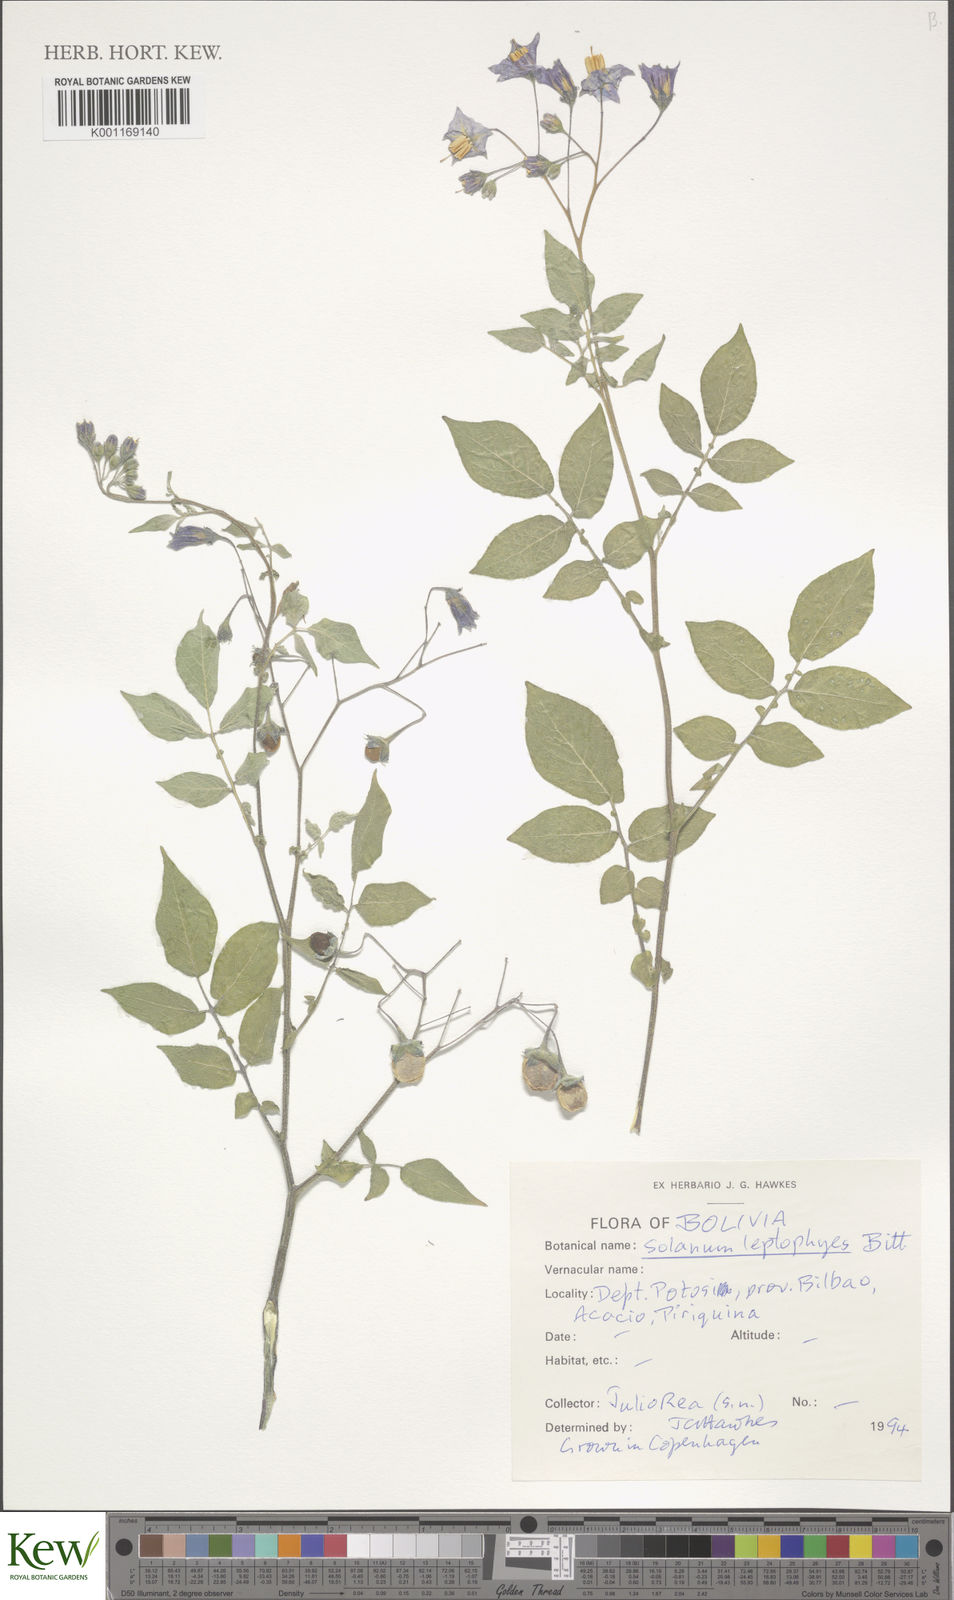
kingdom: Plantae
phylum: Tracheophyta
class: Magnoliopsida
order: Solanales
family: Solanaceae
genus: Solanum
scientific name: Solanum brevicaule
